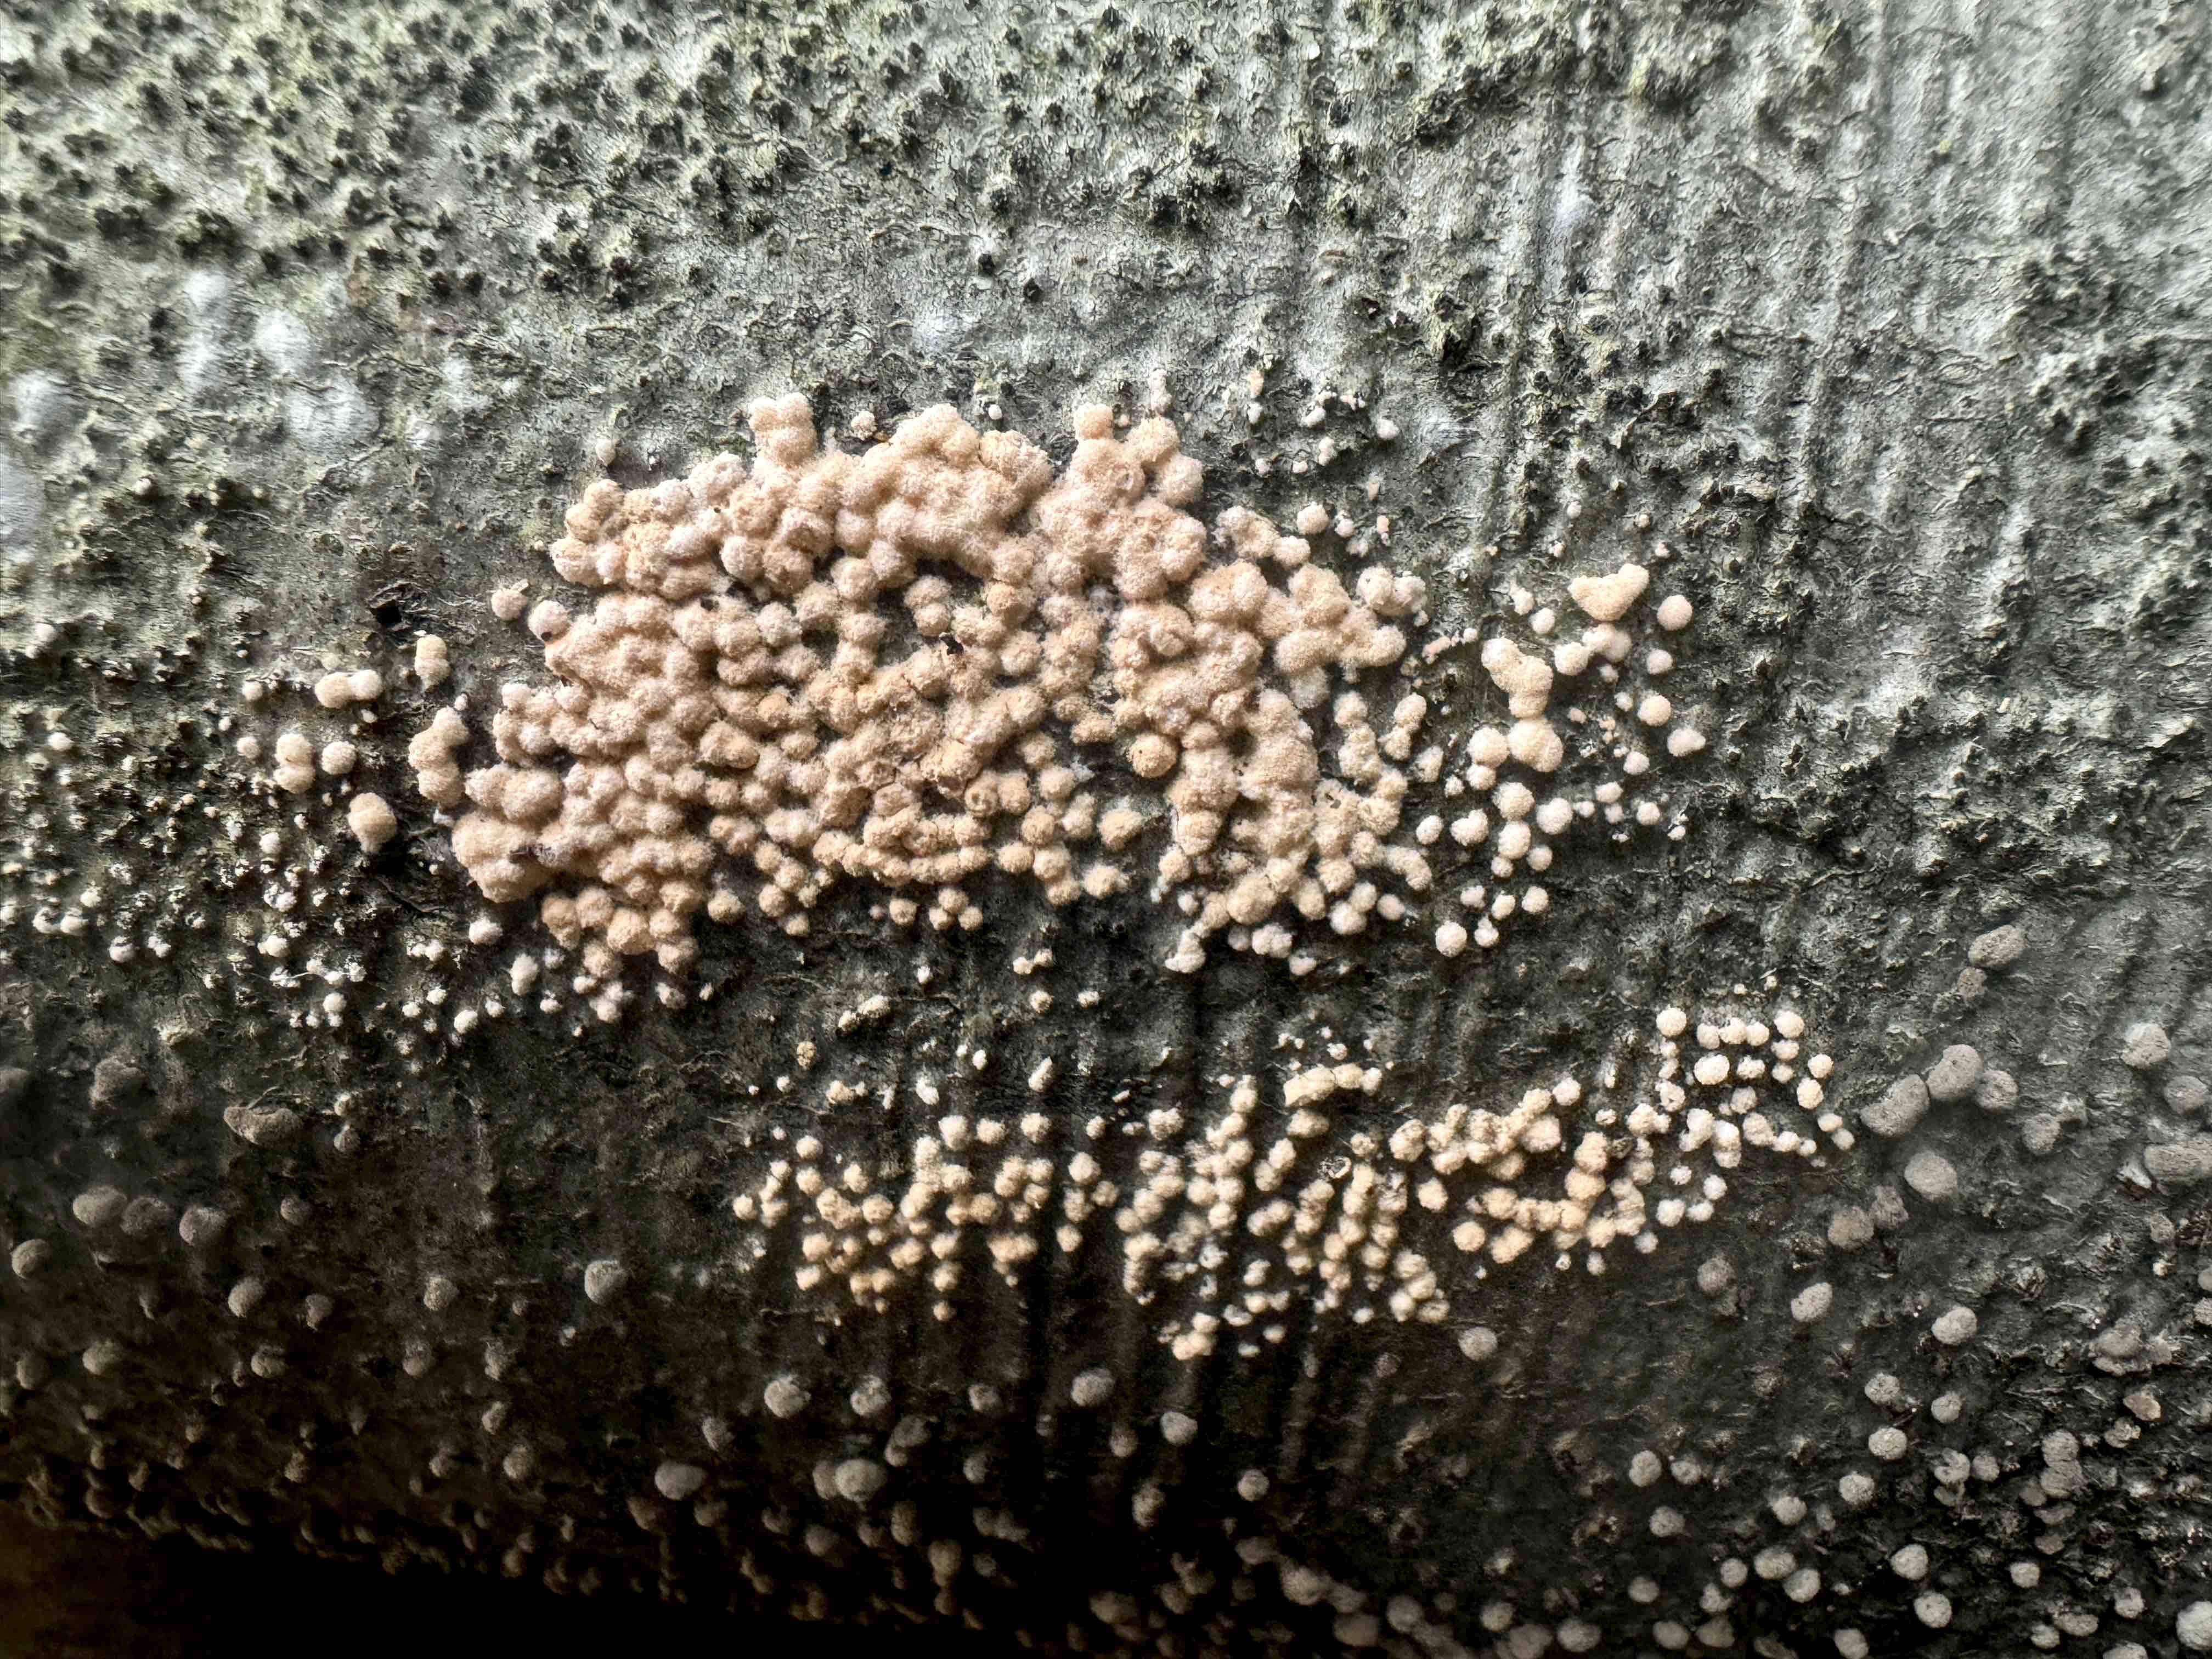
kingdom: Fungi
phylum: Ascomycota
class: Sordariomycetes
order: Xylariales
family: Hypoxylaceae
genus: Hypoxylon
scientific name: Hypoxylon fragiforme
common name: kuljordbær
